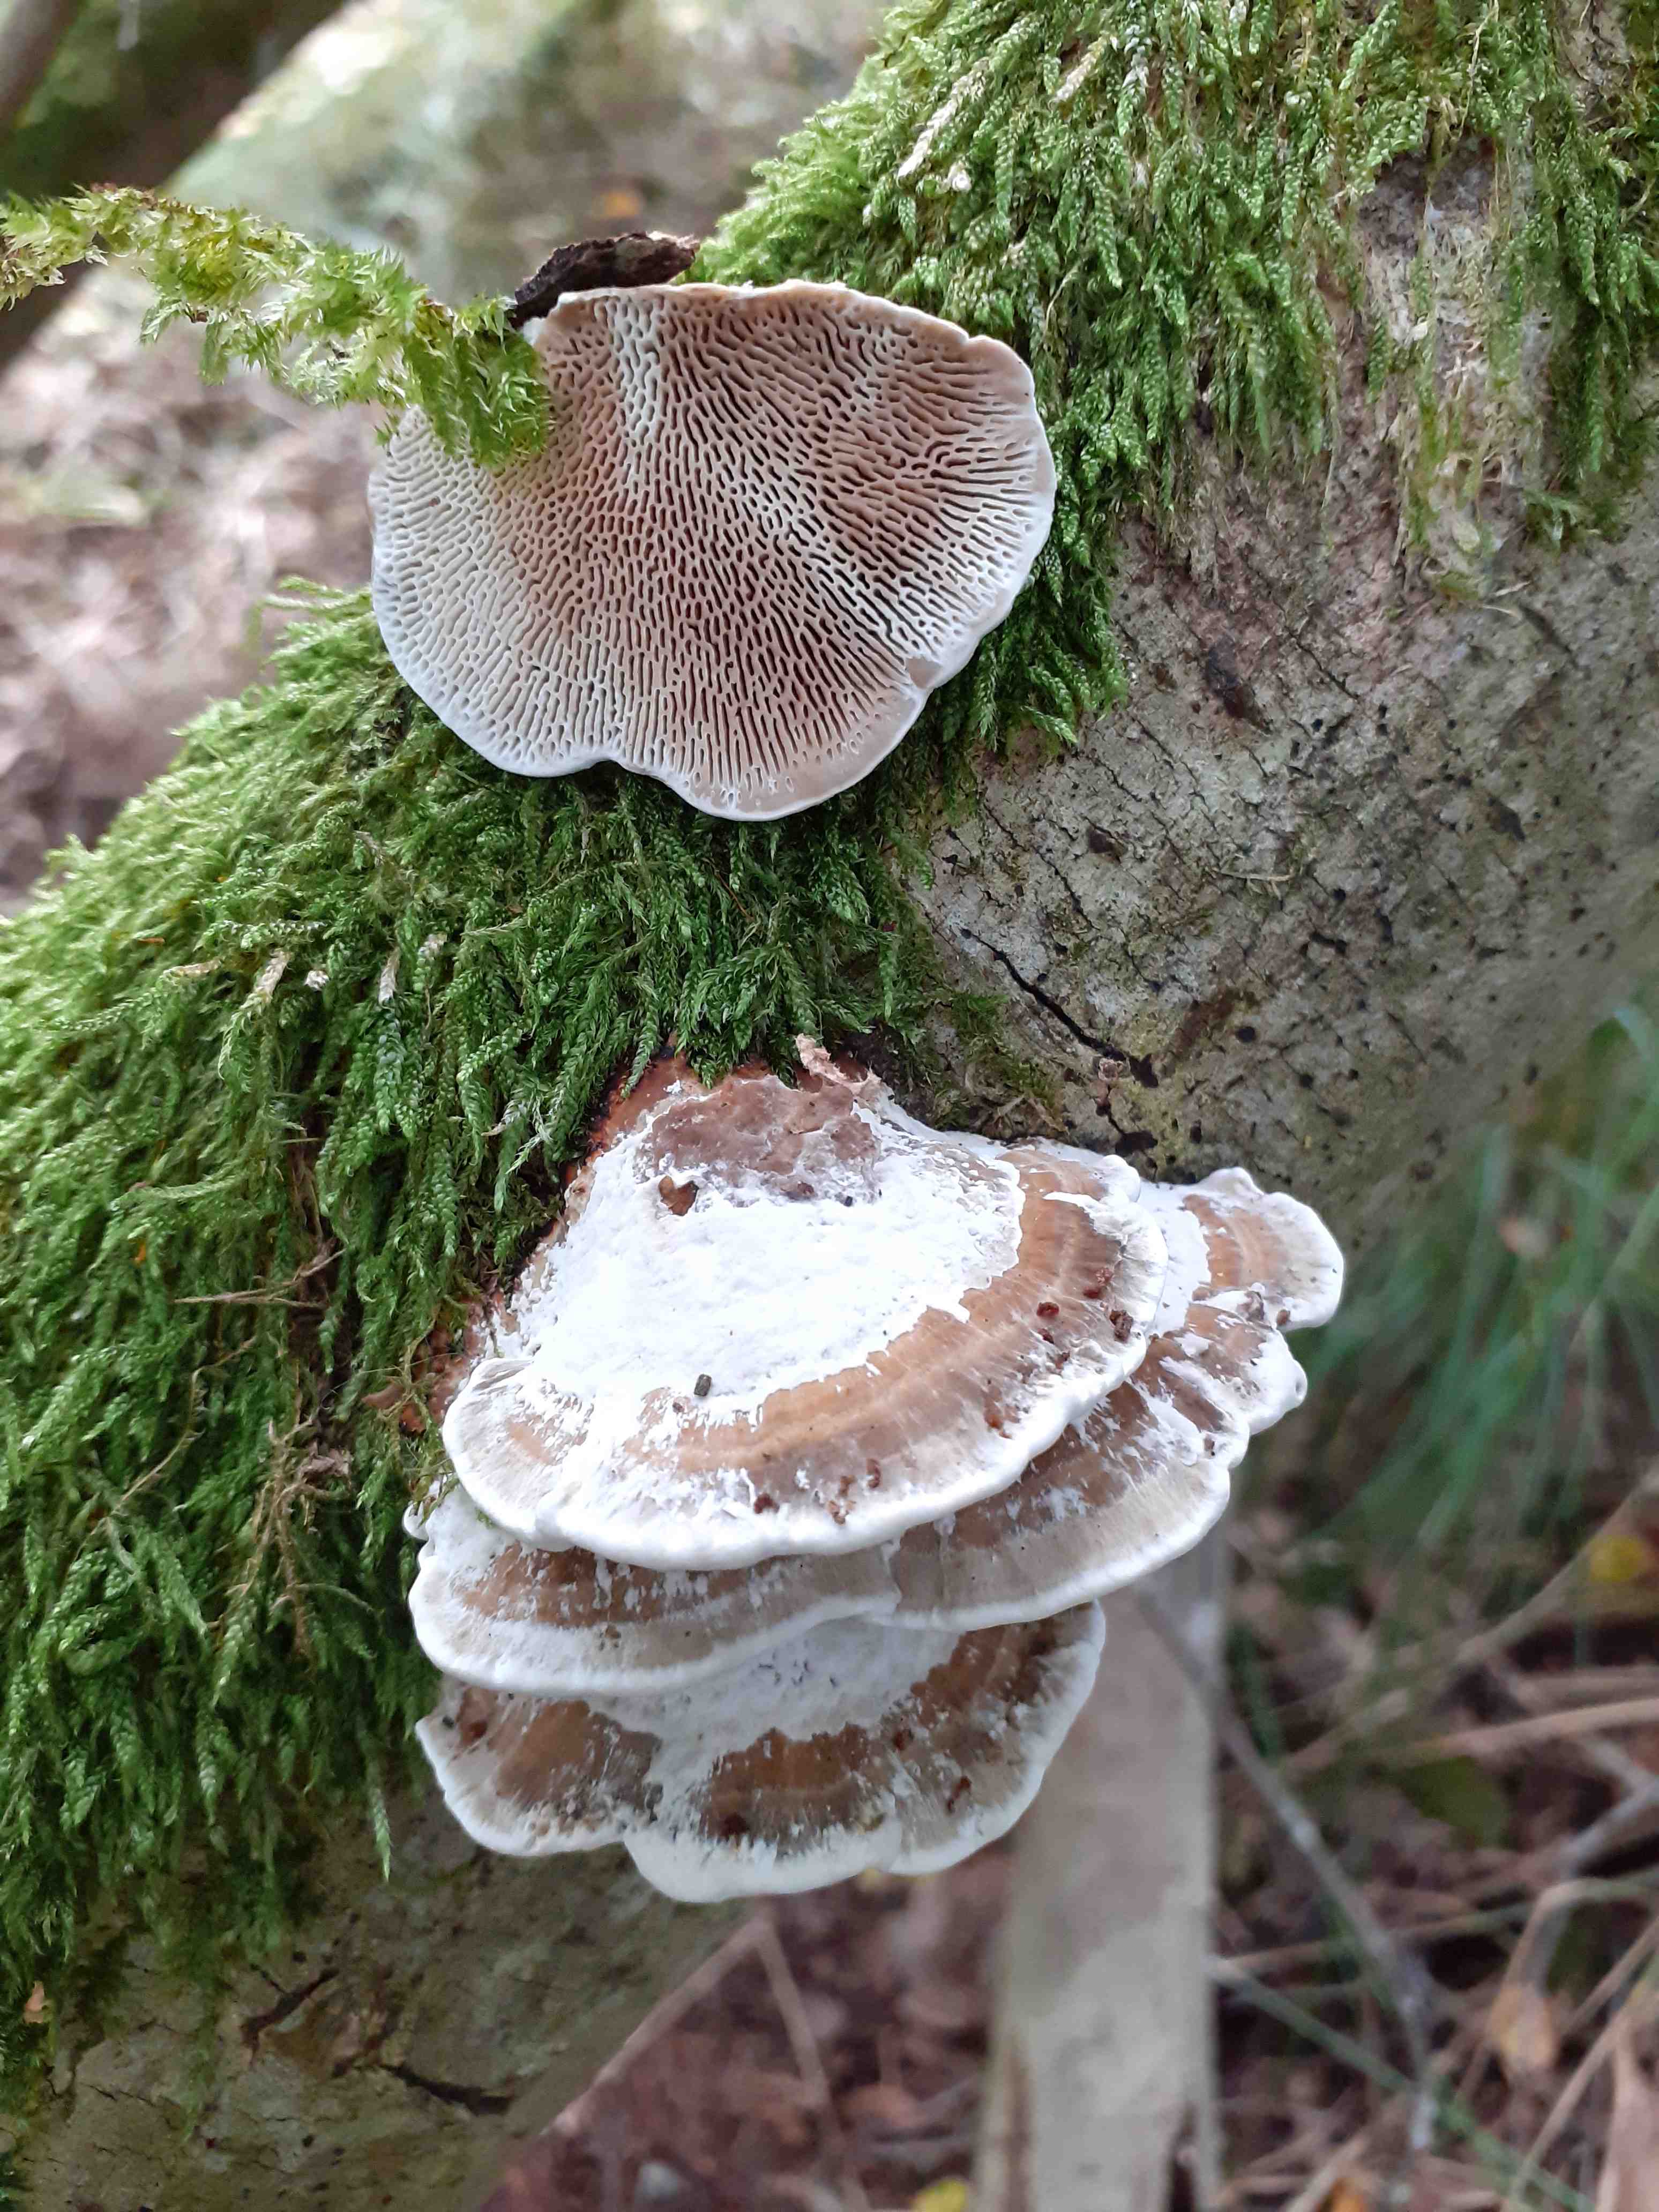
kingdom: Fungi
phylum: Basidiomycota
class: Agaricomycetes
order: Polyporales
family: Polyporaceae
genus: Daedaleopsis
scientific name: Daedaleopsis confragosa
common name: rødmende læderporesvamp
